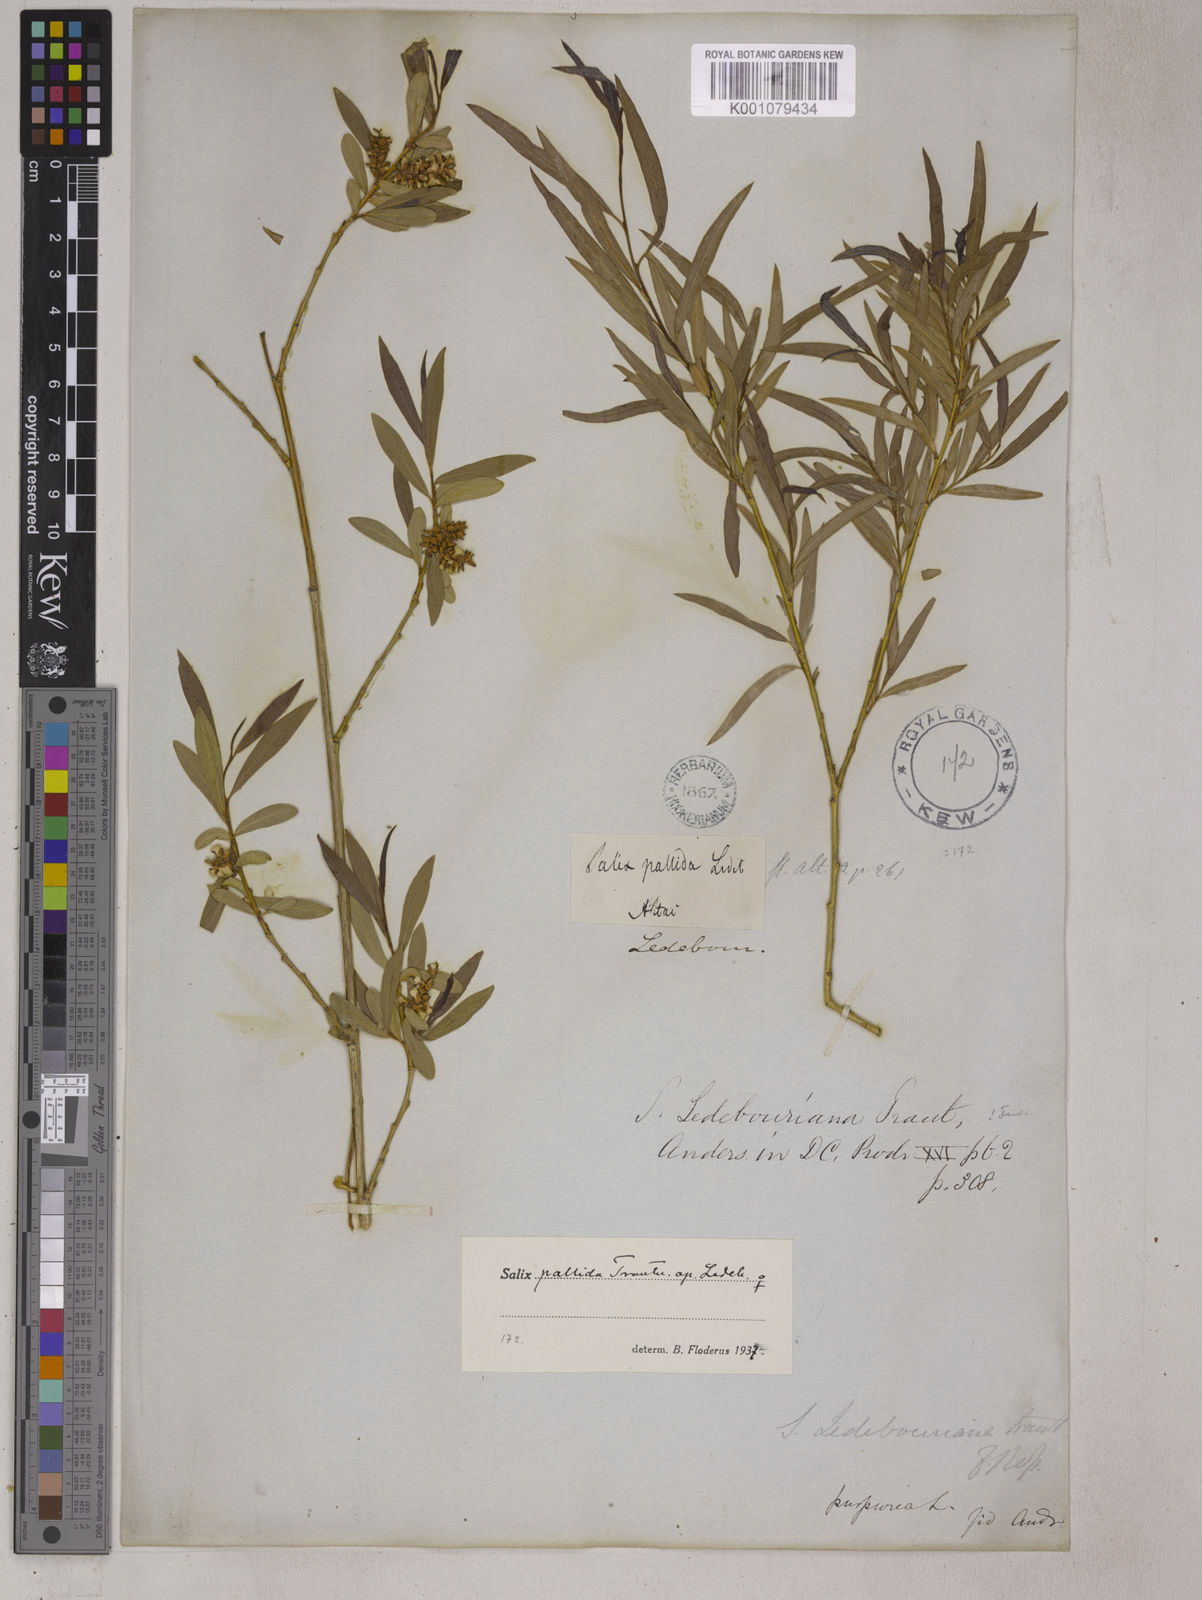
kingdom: Plantae
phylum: Tracheophyta
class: Magnoliopsida
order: Malpighiales
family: Salicaceae
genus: Salix
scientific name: Salix ledebouriana
